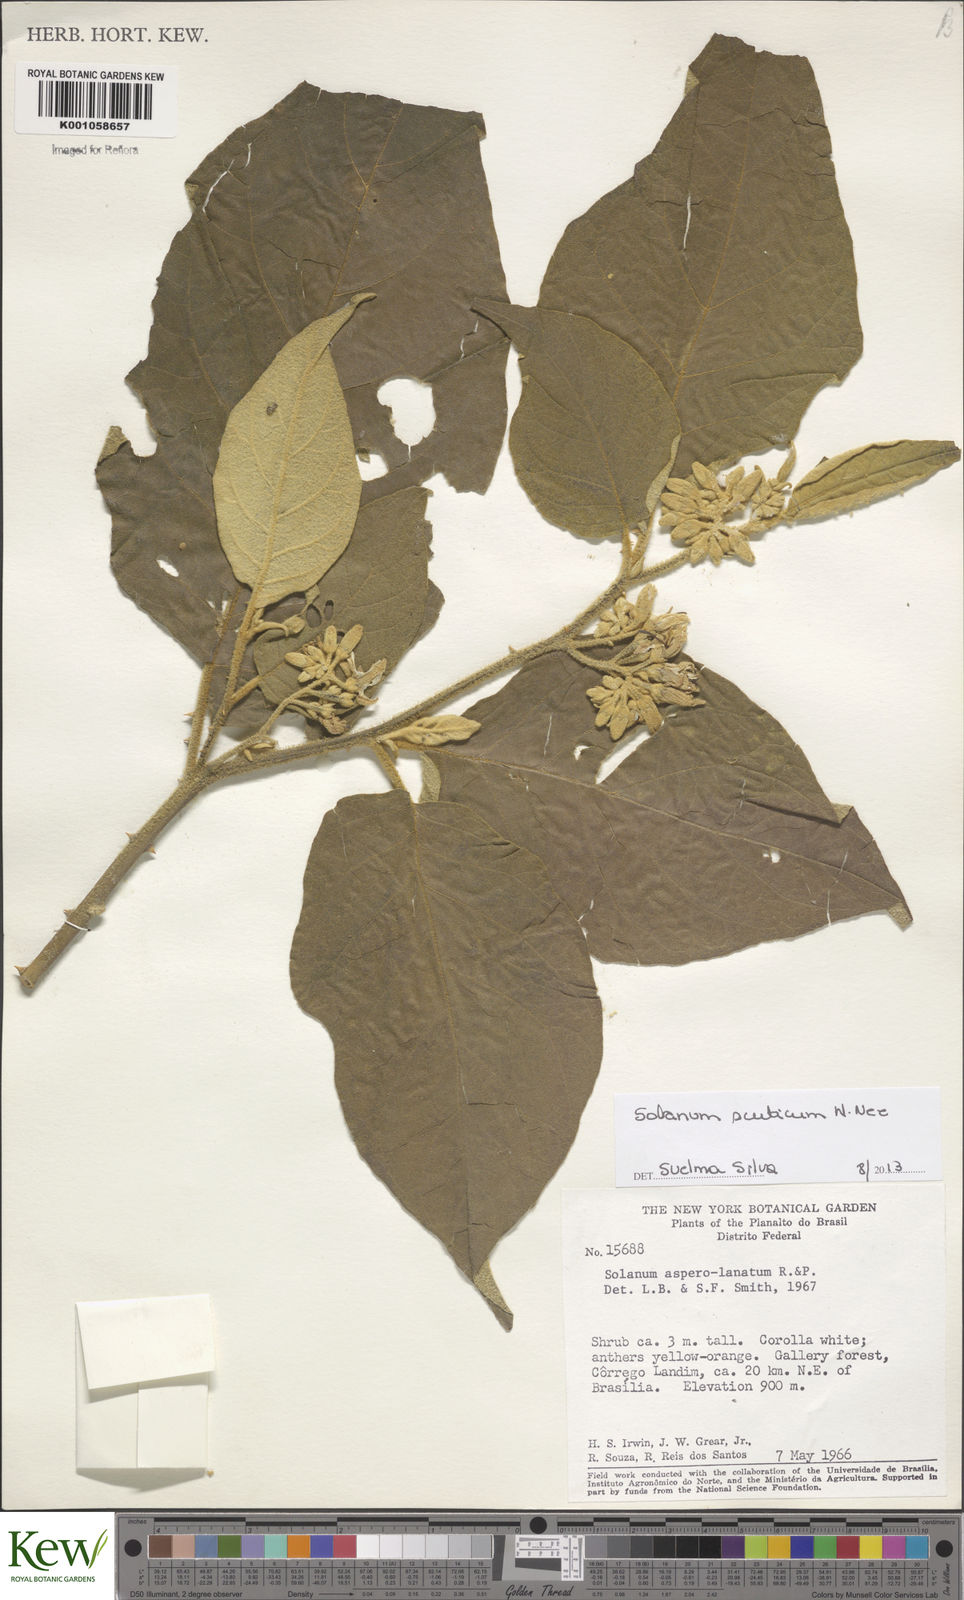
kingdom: Plantae
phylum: Tracheophyta
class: Magnoliopsida
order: Solanales
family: Solanaceae
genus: Solanum
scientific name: Solanum scuticum
